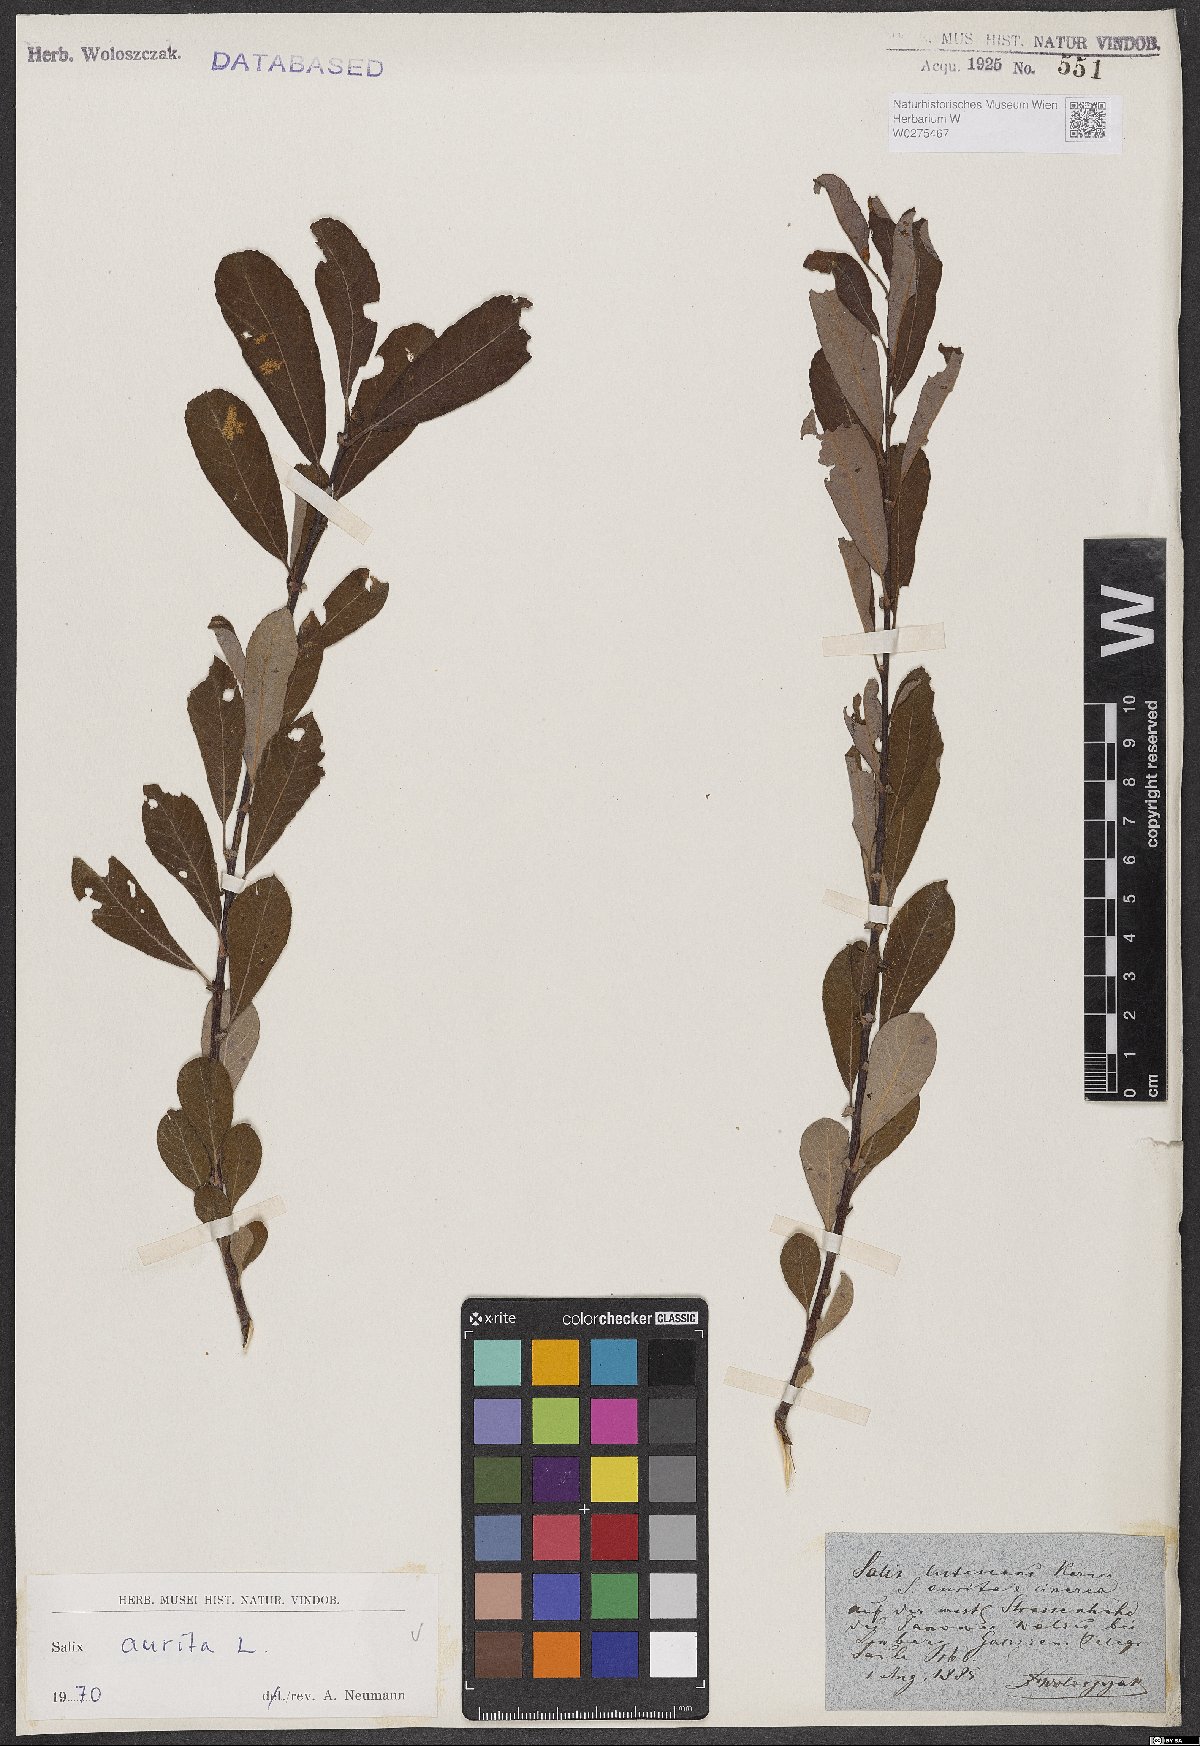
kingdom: Plantae
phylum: Tracheophyta
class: Magnoliopsida
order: Malpighiales
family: Salicaceae
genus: Salix
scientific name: Salix aurita
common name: Eared willow
